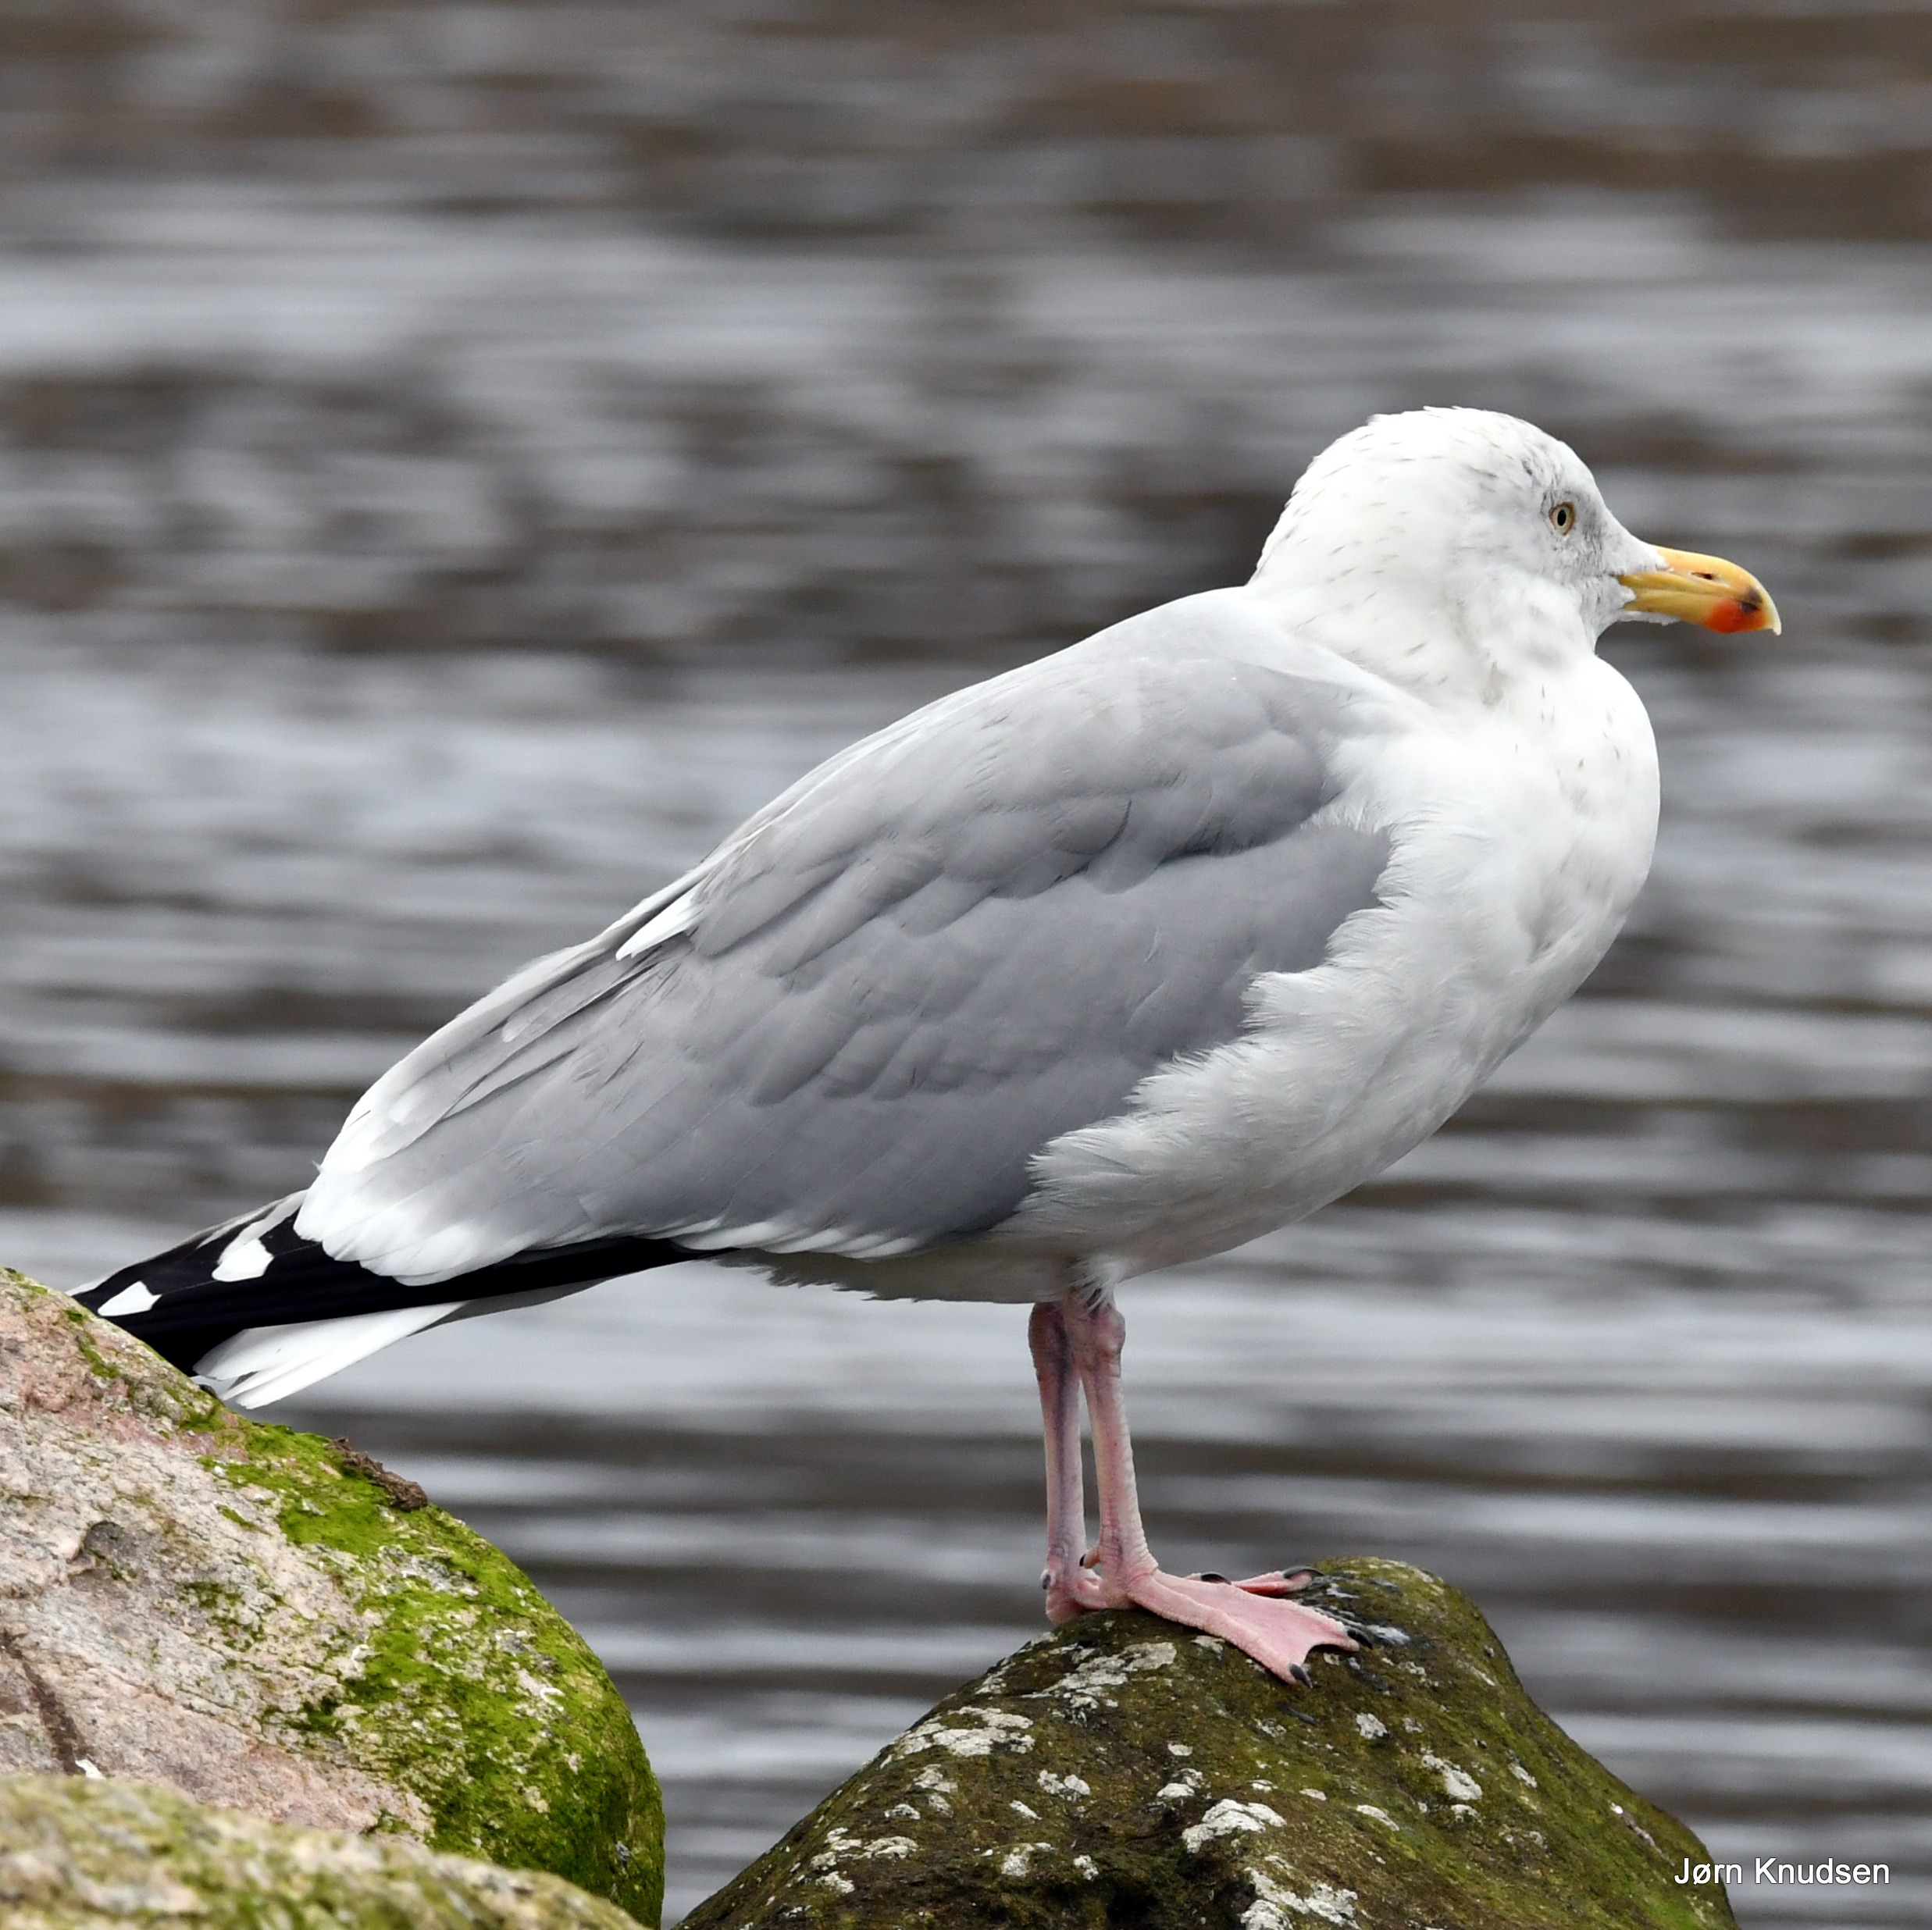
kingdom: Animalia
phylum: Chordata
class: Aves
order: Charadriiformes
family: Laridae
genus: Larus
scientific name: Larus argentatus
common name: Sølvmåge
